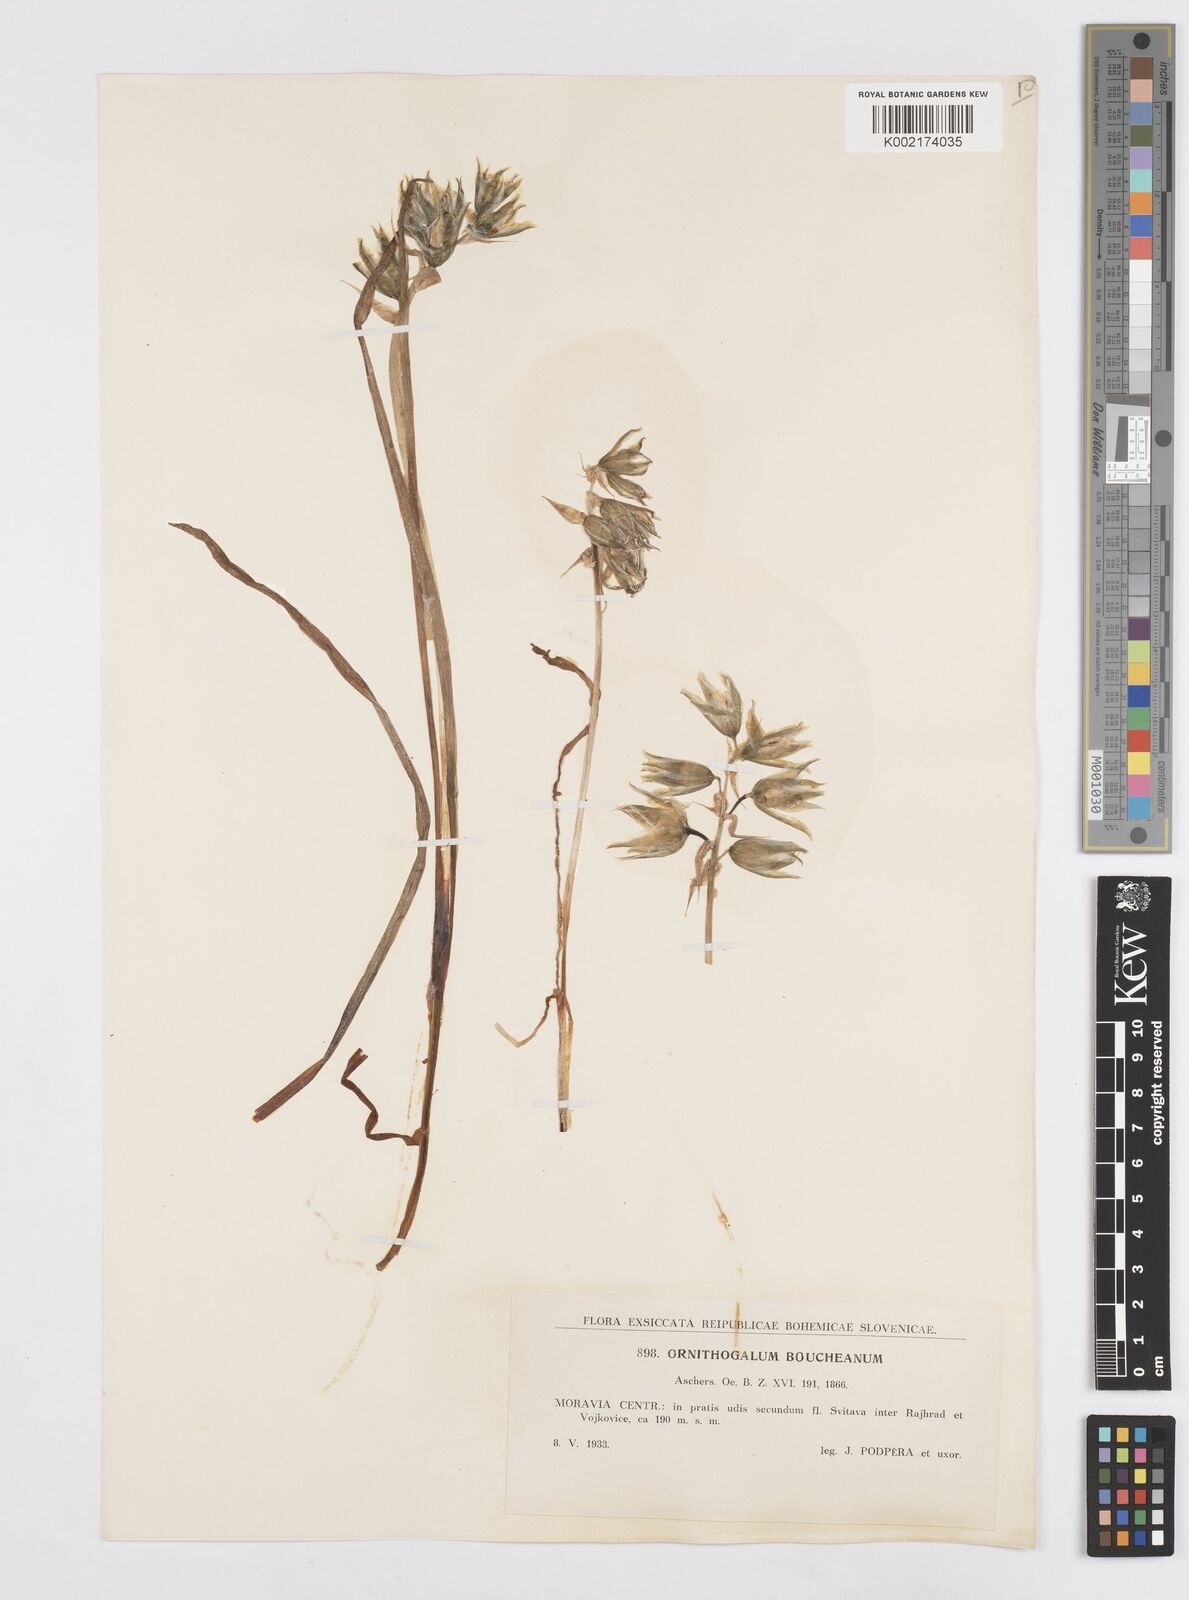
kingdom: Plantae
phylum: Tracheophyta
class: Liliopsida
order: Asparagales
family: Asparagaceae
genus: Ornithogalum
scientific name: Ornithogalum boucheanum
